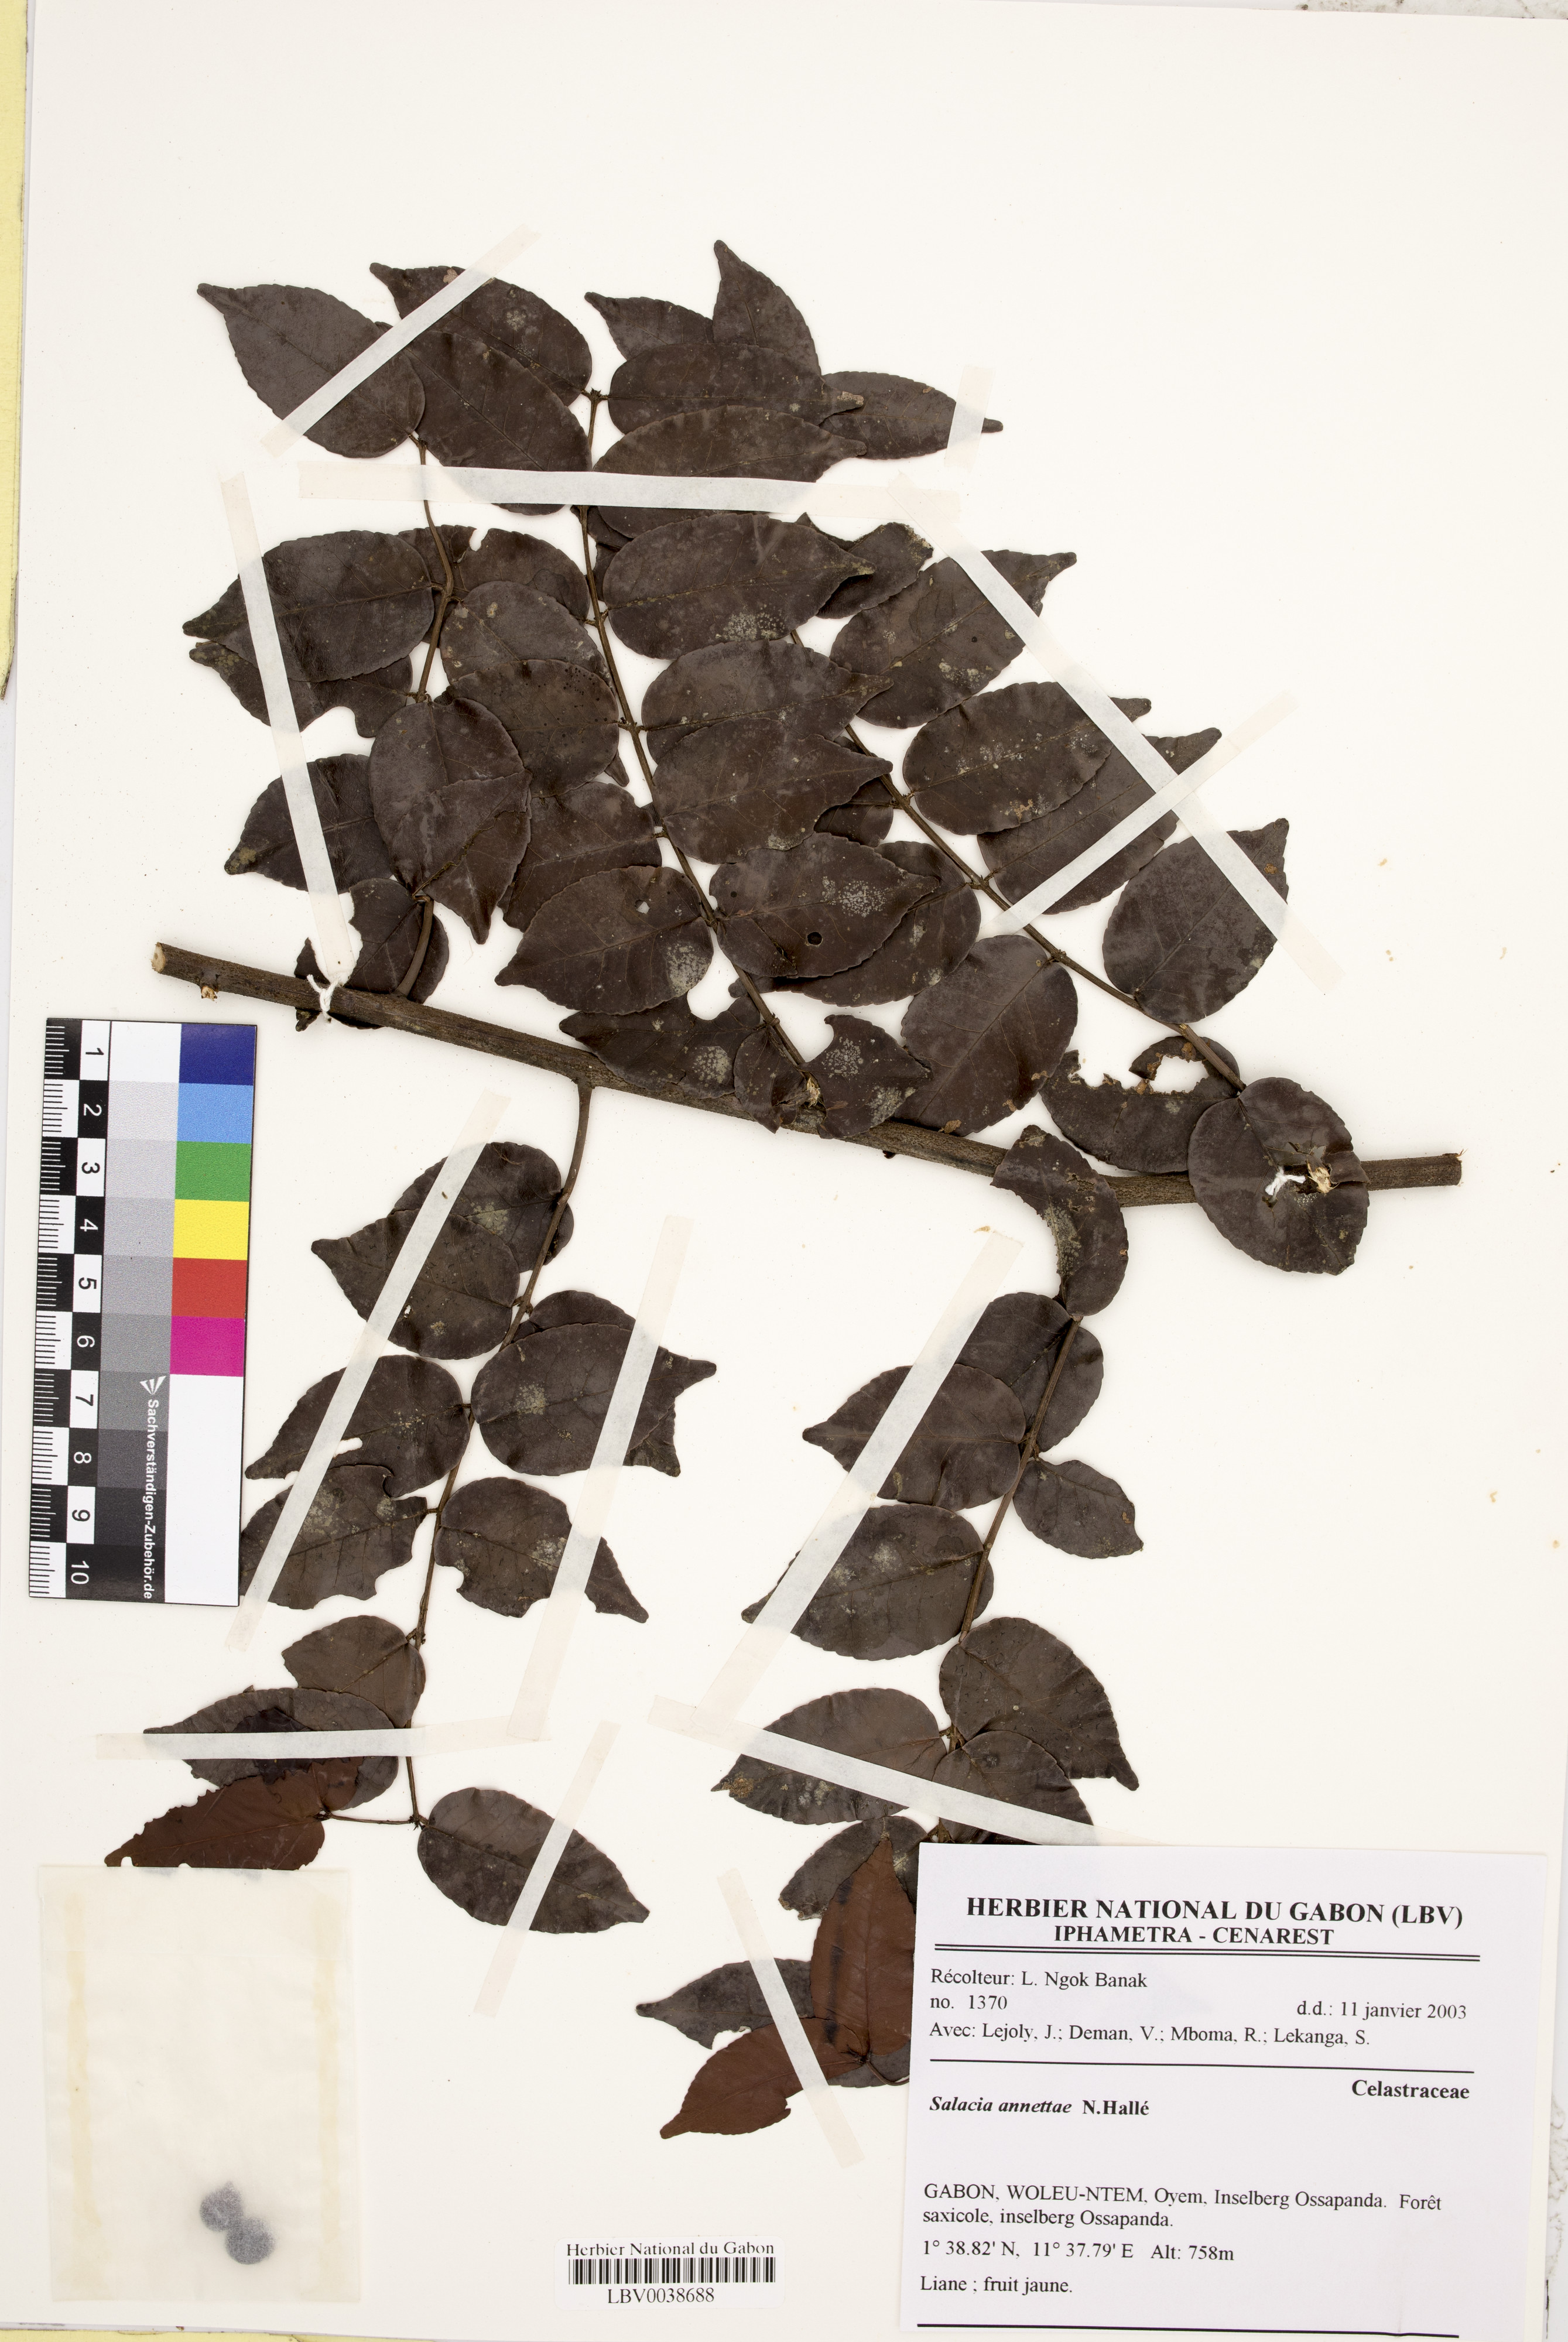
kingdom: Plantae
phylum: Tracheophyta
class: Magnoliopsida
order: Celastrales
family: Celastraceae
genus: Salacia
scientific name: Salacia erecta
